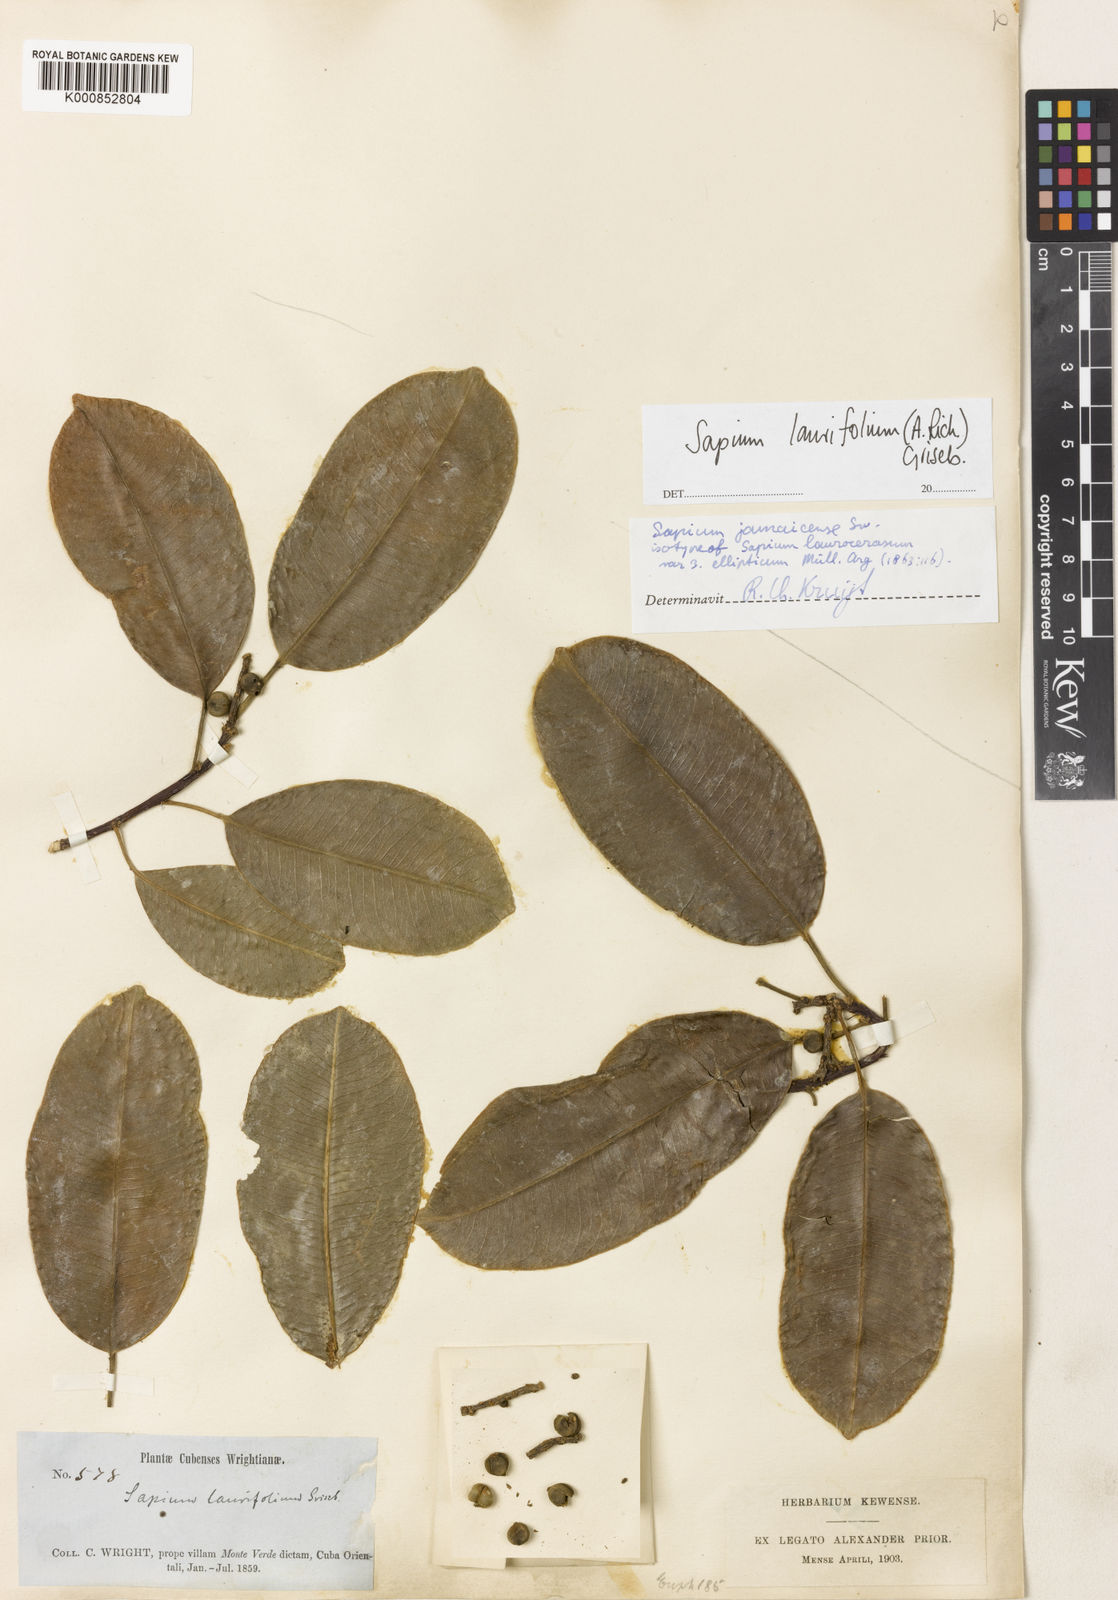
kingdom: Plantae
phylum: Tracheophyta
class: Magnoliopsida
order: Malpighiales
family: Euphorbiaceae
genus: Sapium
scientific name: Sapium laurifolium
